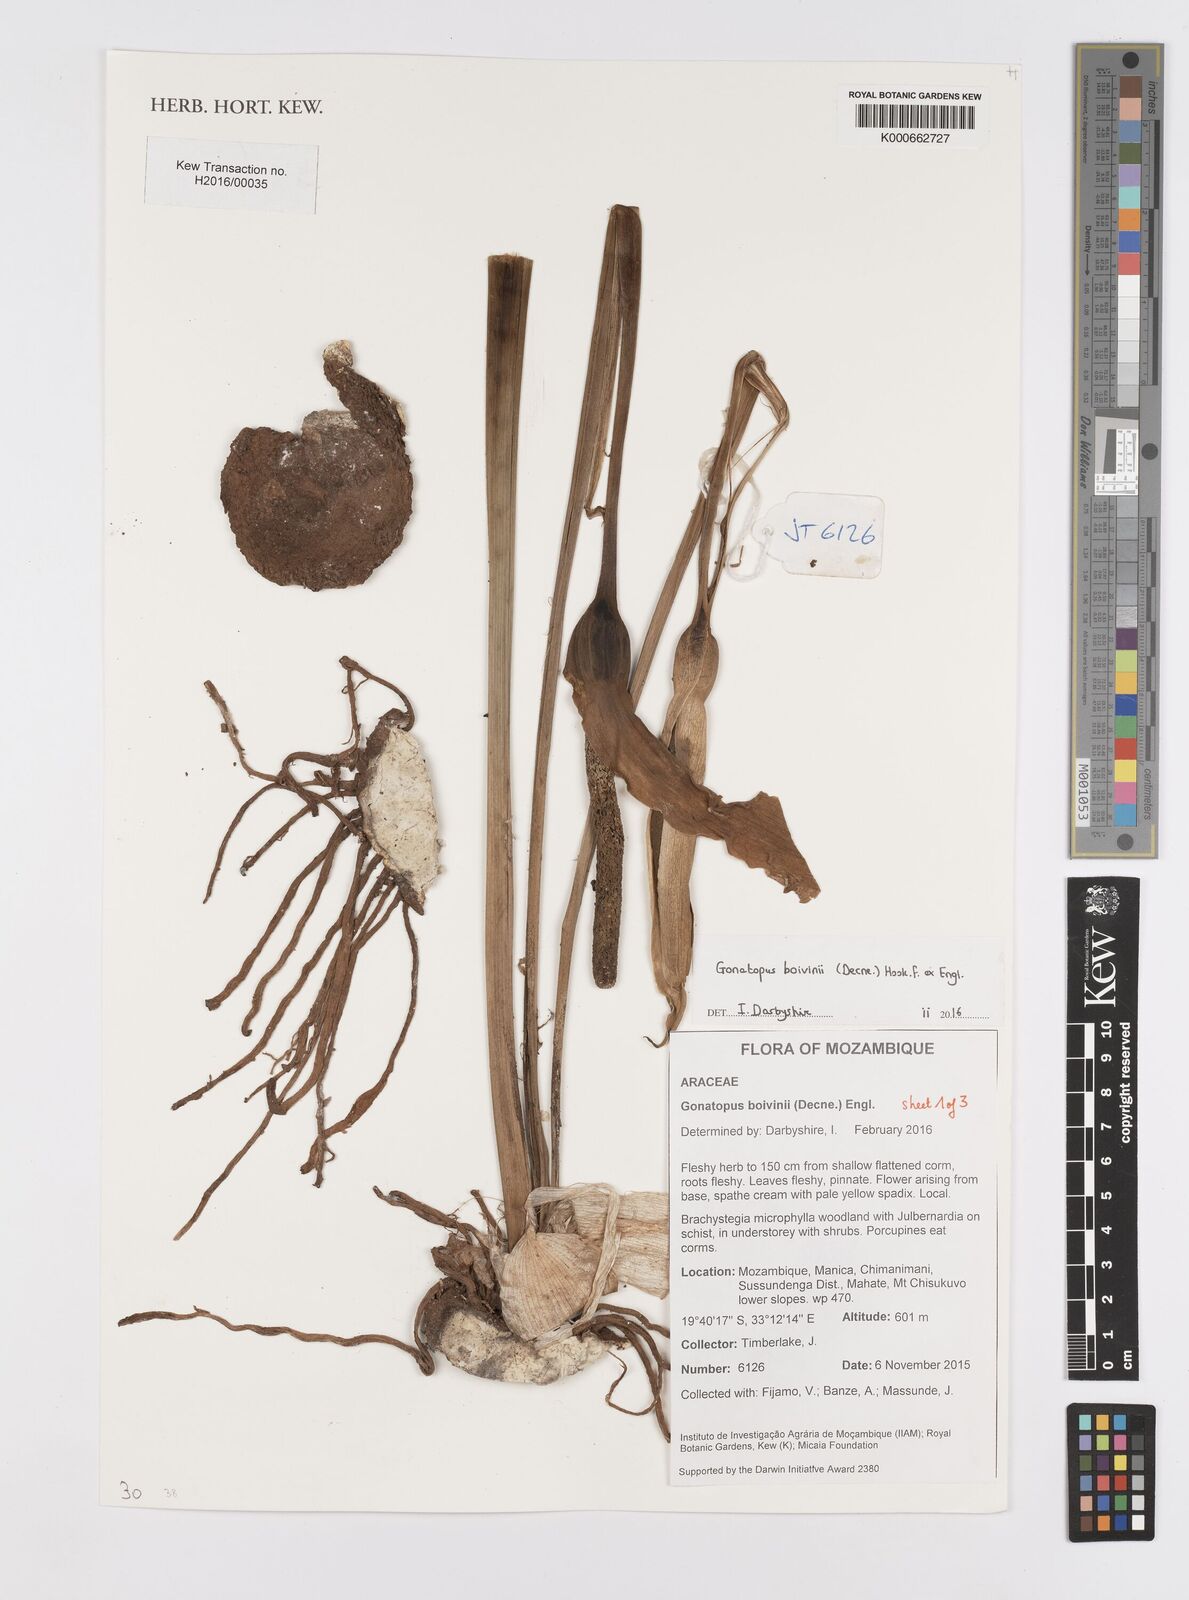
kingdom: Plantae
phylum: Tracheophyta
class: Liliopsida
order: Alismatales
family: Araceae
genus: Gonatopus
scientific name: Gonatopus boivinii
